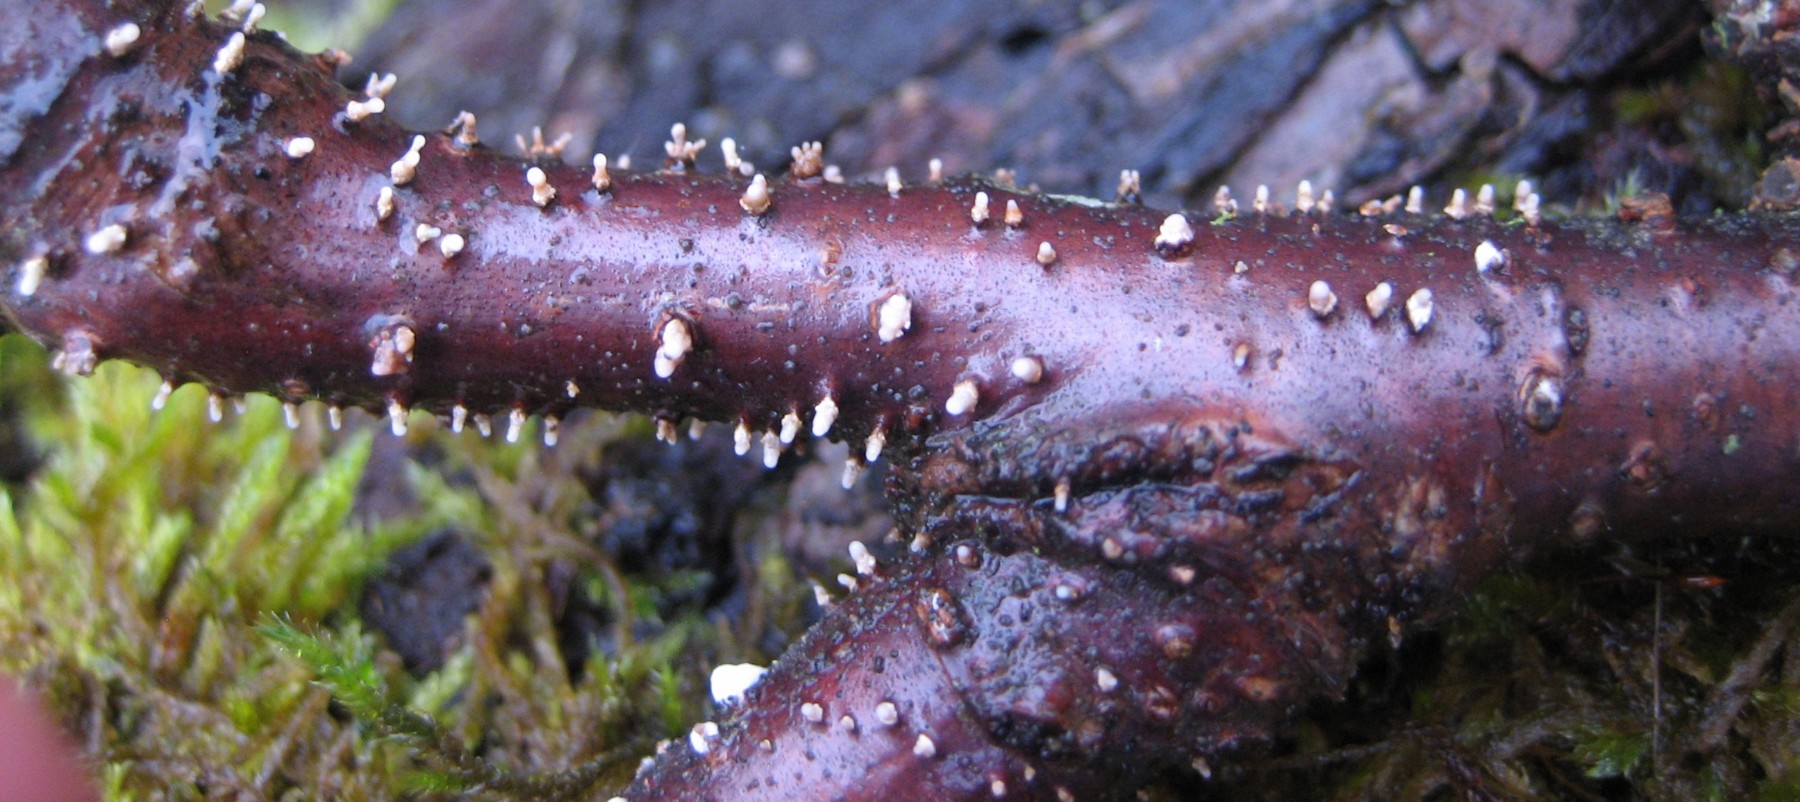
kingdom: Fungi
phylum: Ascomycota
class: Leotiomycetes
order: Helotiales
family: Dermateaceae
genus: Dermea
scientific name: Dermea cerasi
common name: kirsebær-klyngeskive
